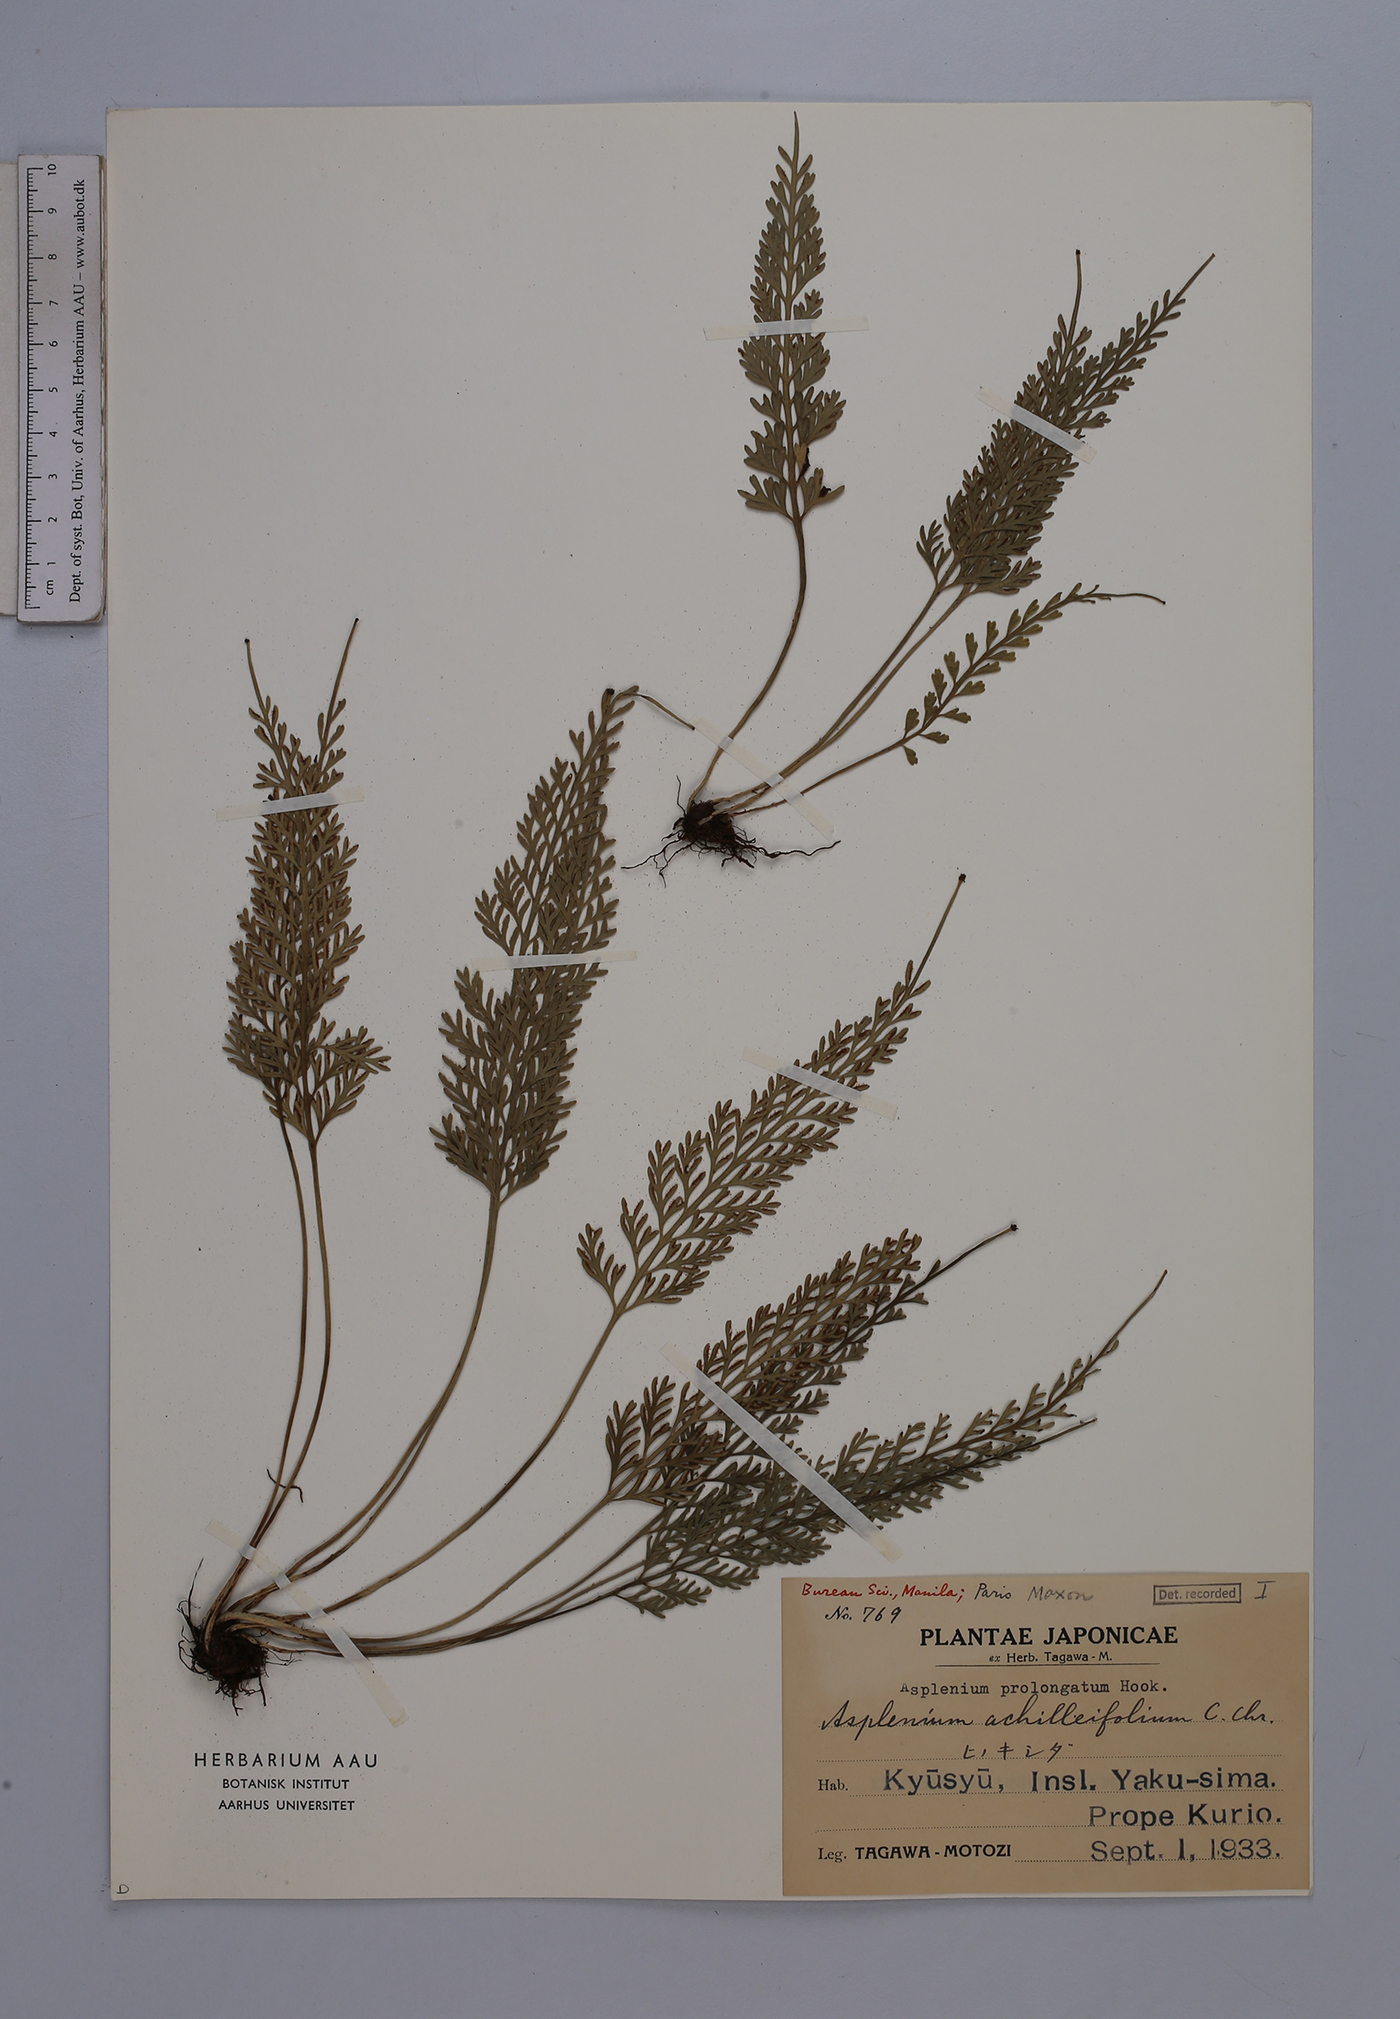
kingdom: Plantae
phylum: Tracheophyta
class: Polypodiopsida
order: Polypodiales
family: Aspleniaceae
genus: Asplenium
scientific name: Asplenium prolongatum
